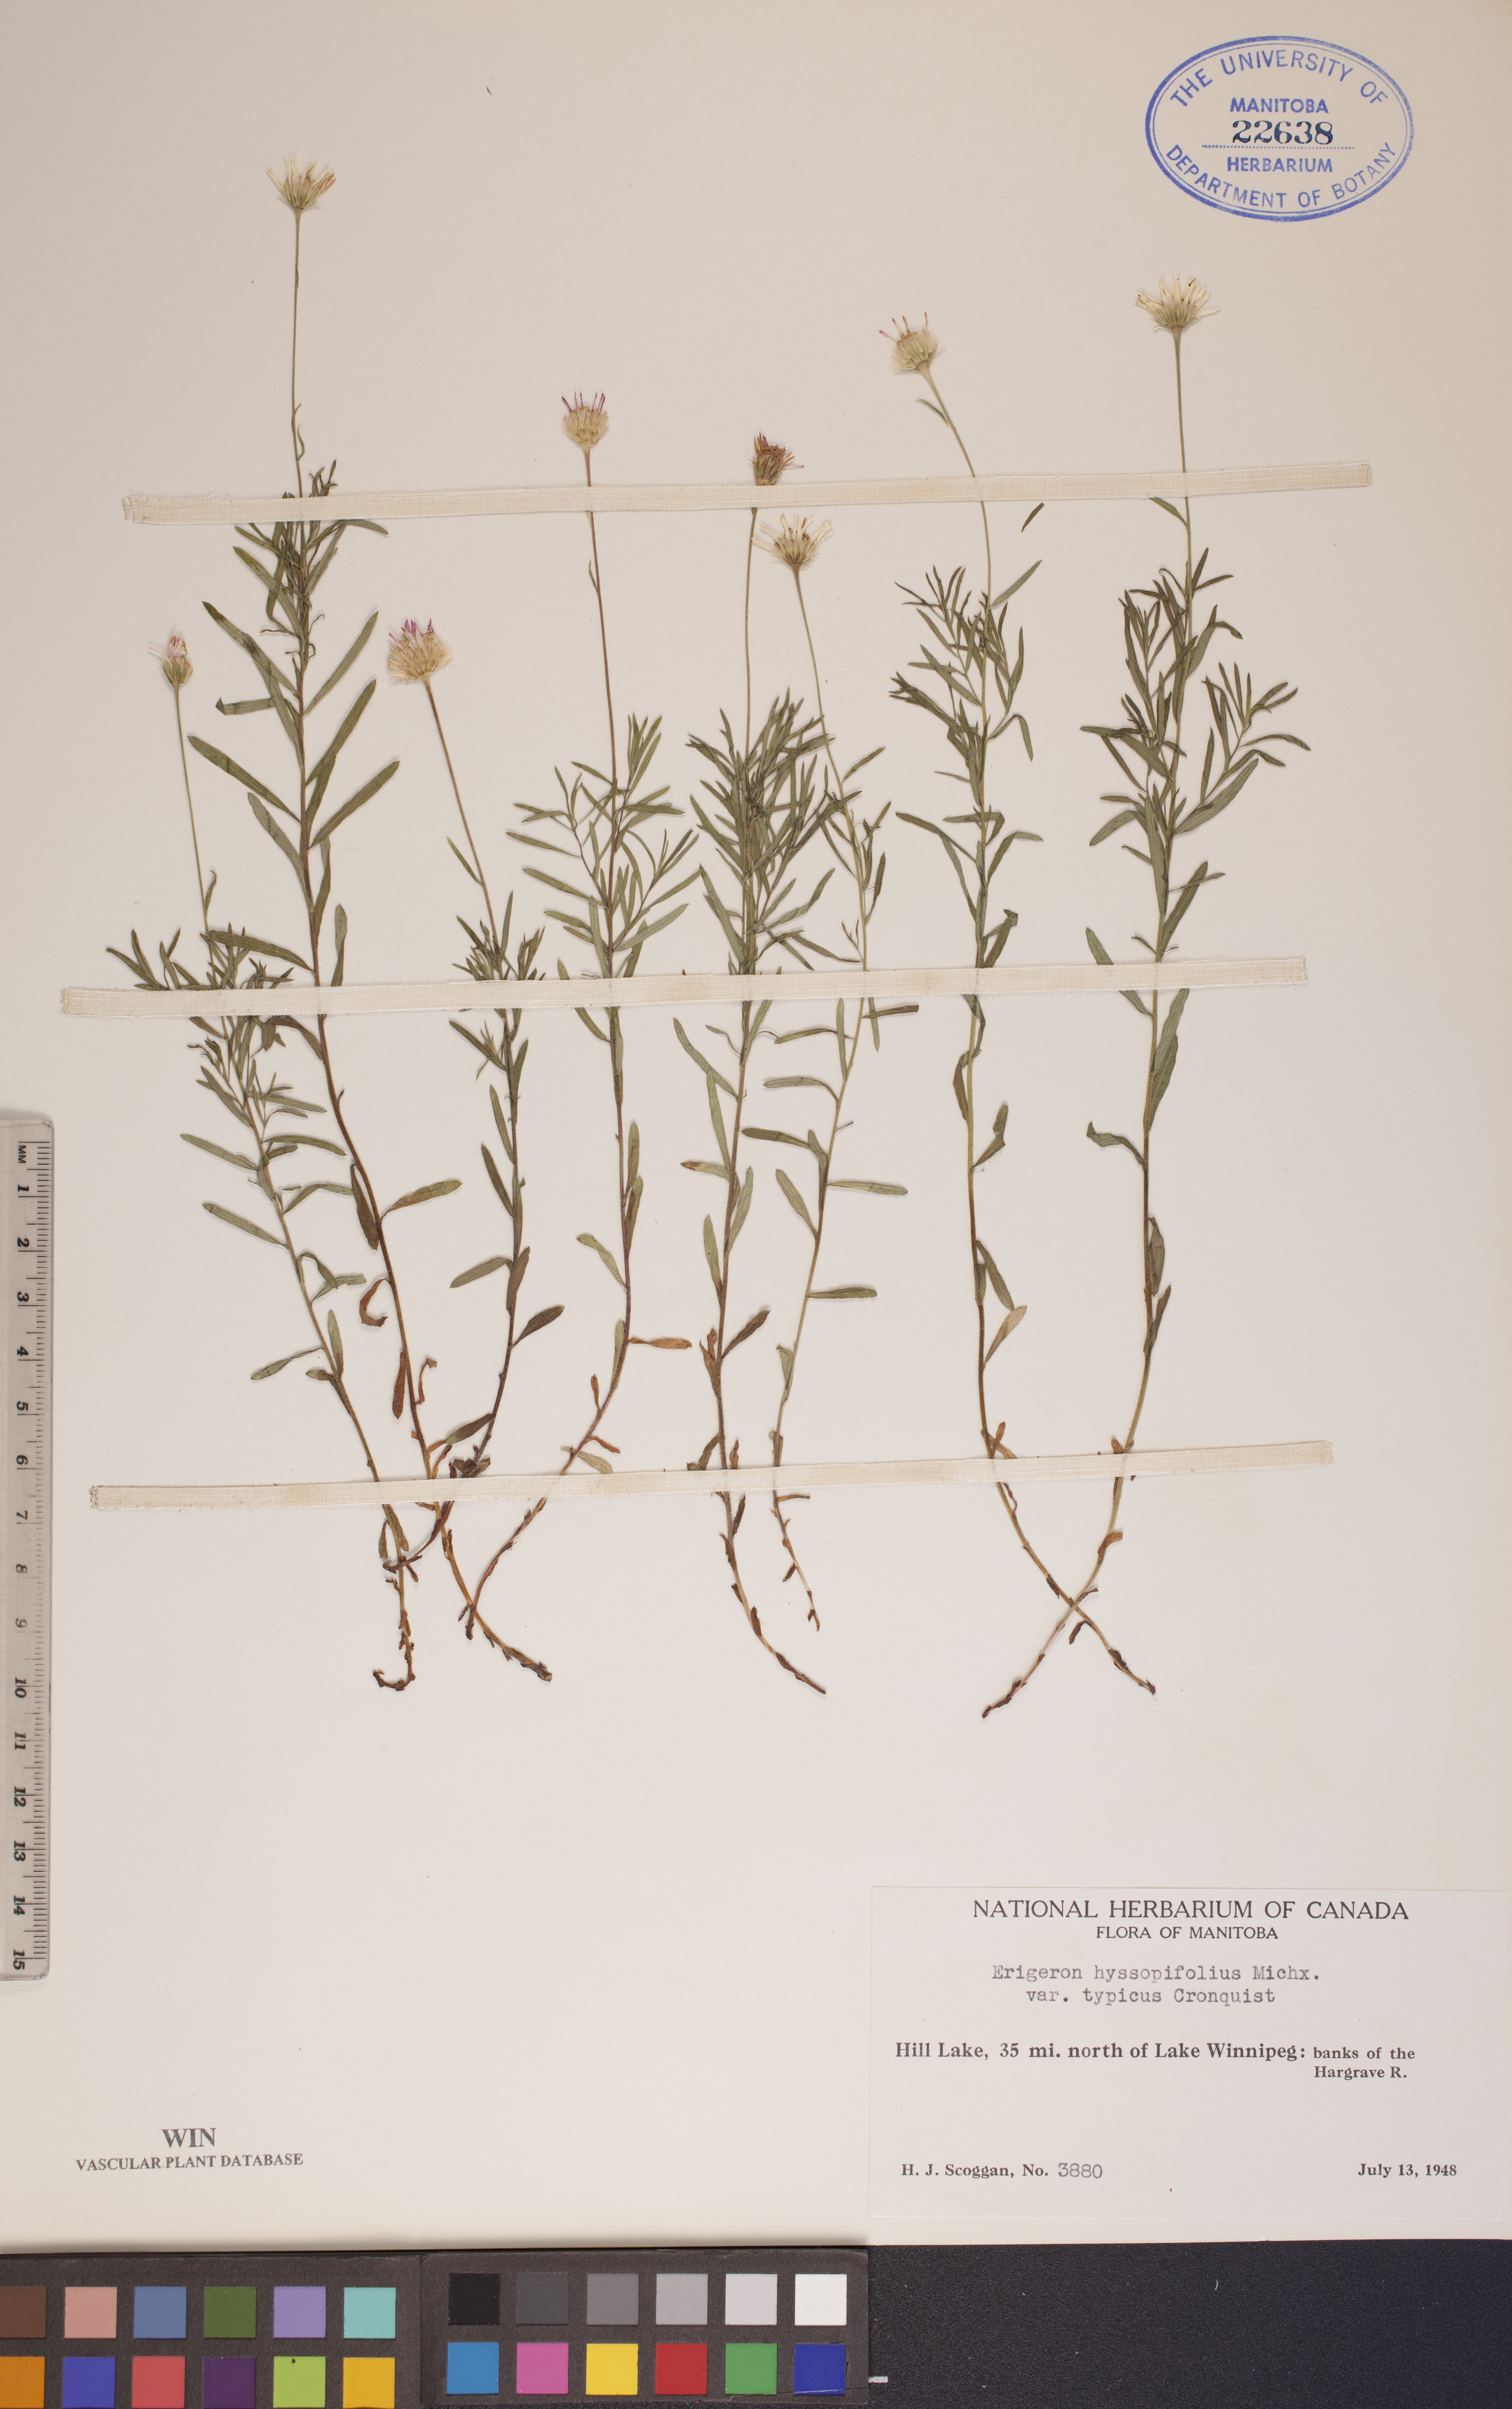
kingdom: Plantae
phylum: Tracheophyta
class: Magnoliopsida
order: Asterales
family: Asteraceae
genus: Erigeron
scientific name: Erigeron hyssopifolius
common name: Daisy fleabane
